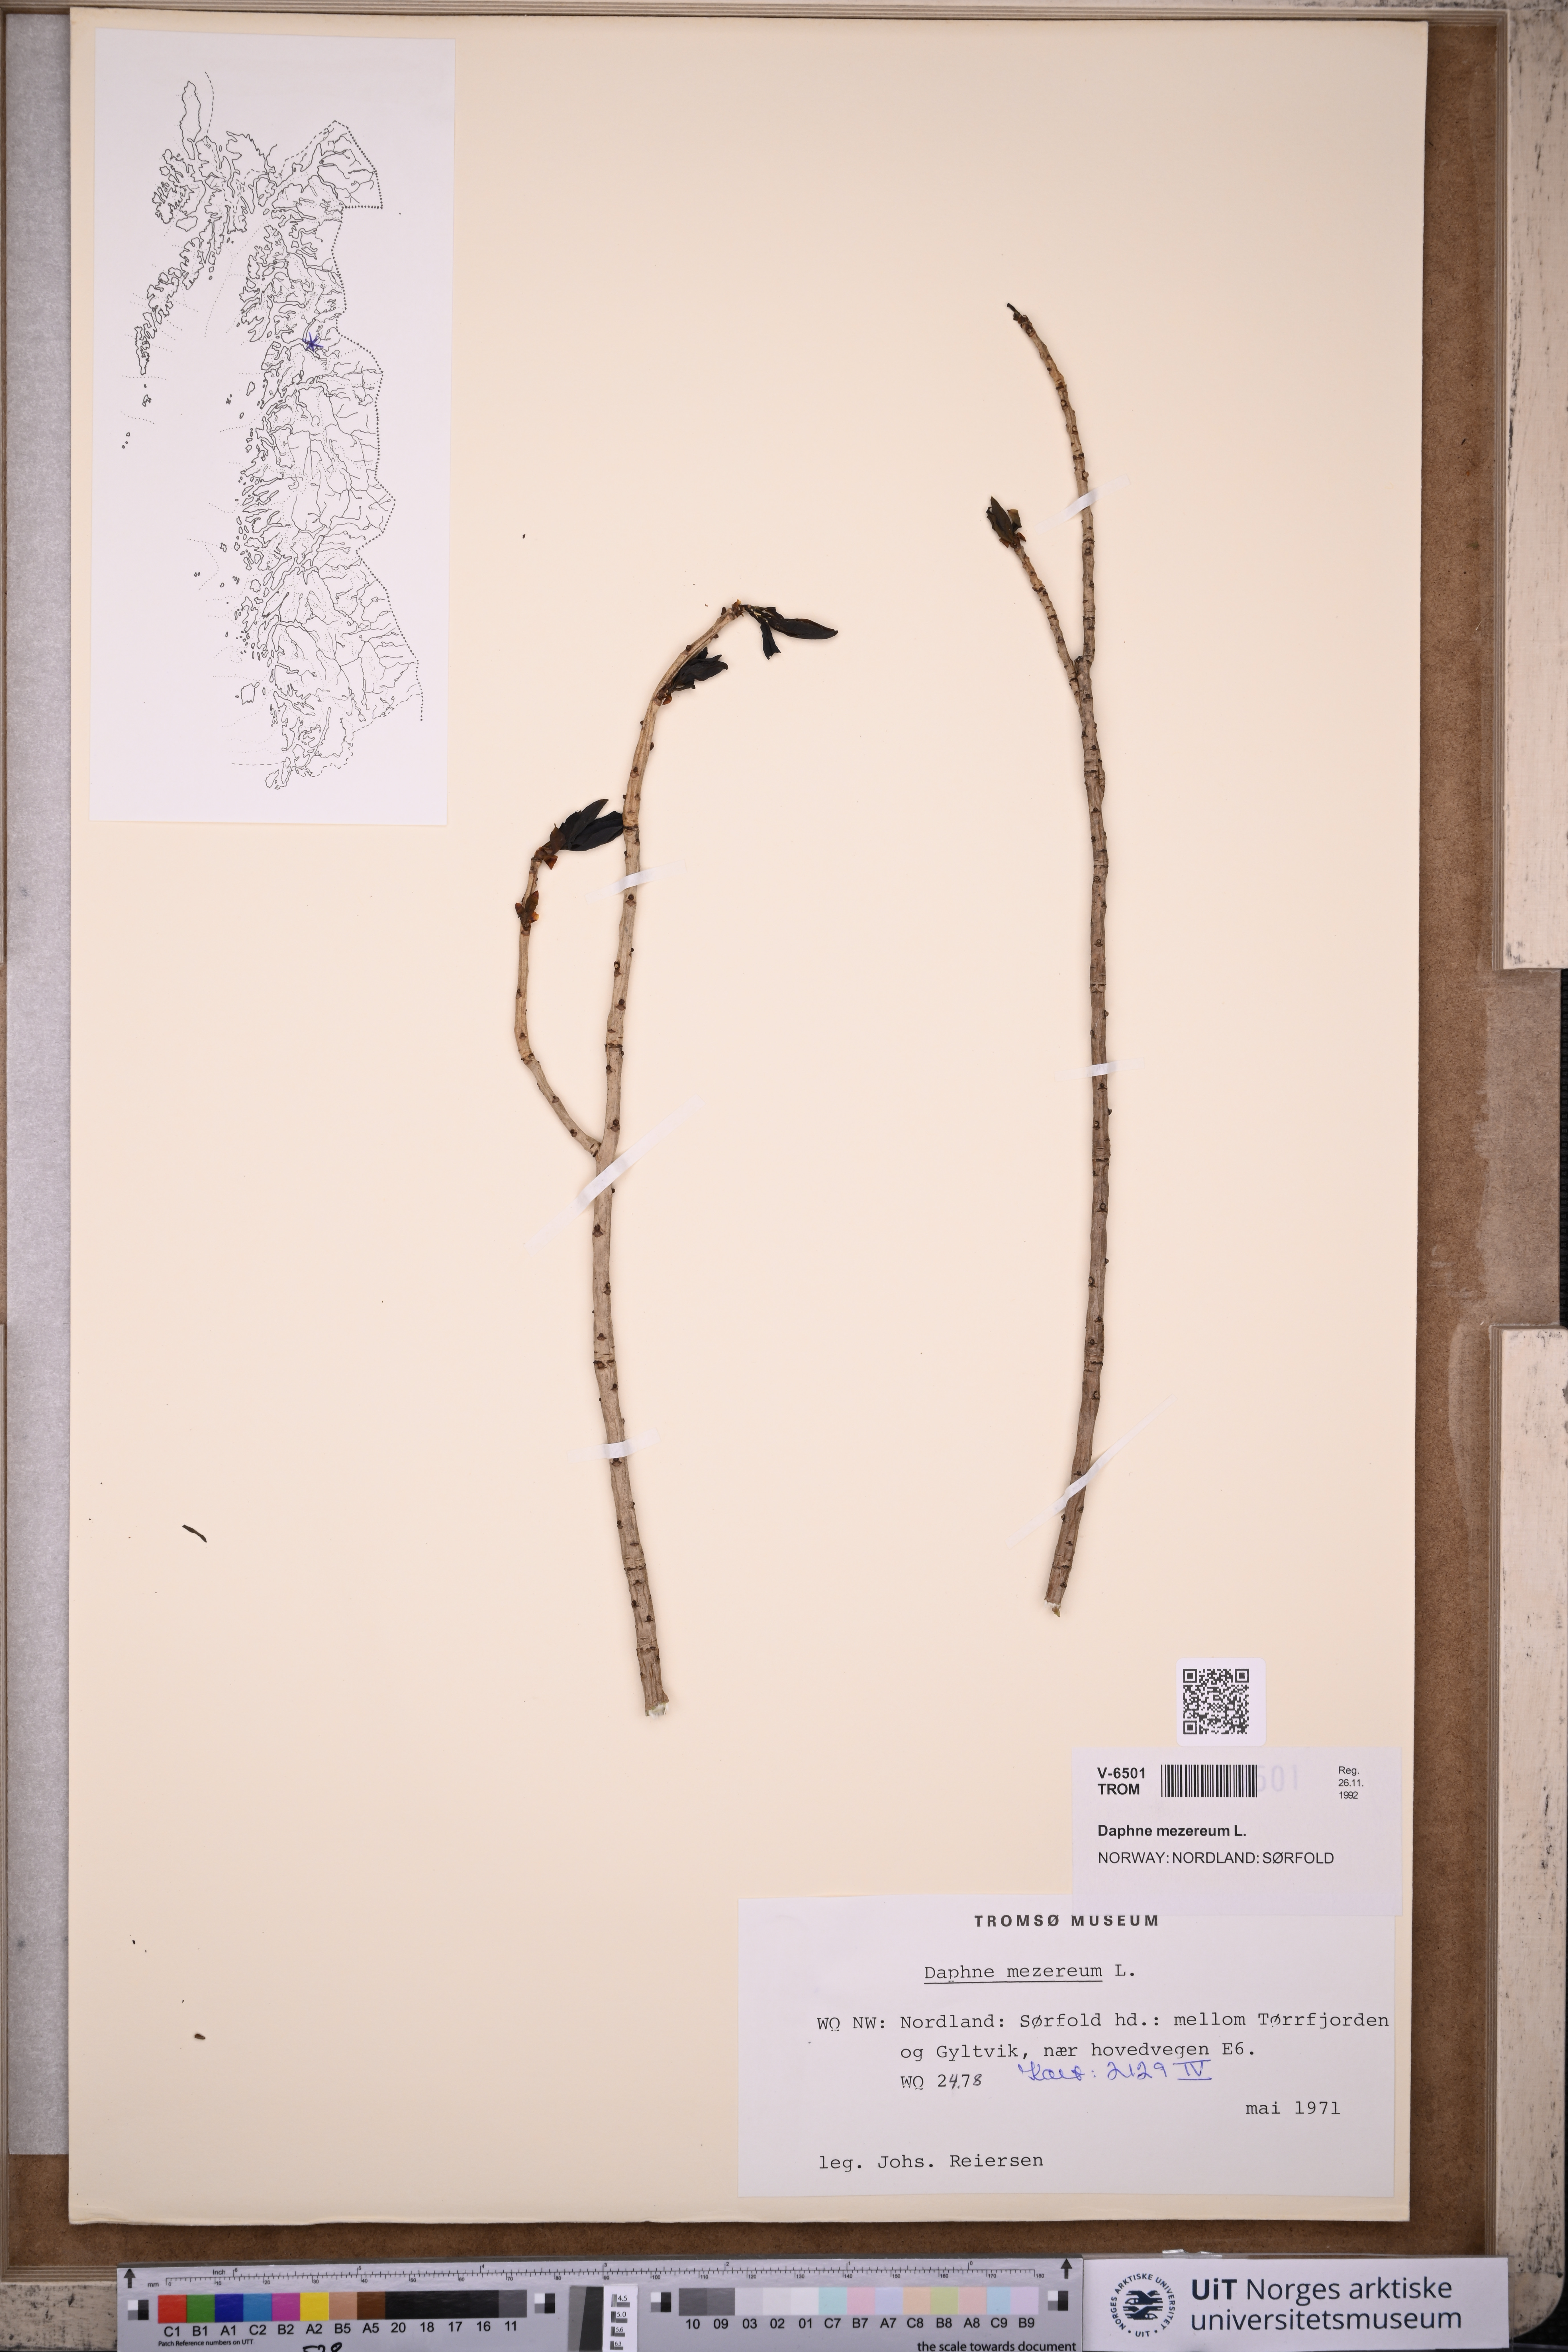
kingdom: Plantae
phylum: Tracheophyta
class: Magnoliopsida
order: Malvales
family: Thymelaeaceae
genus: Daphne
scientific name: Daphne mezereum
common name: Mezereon
